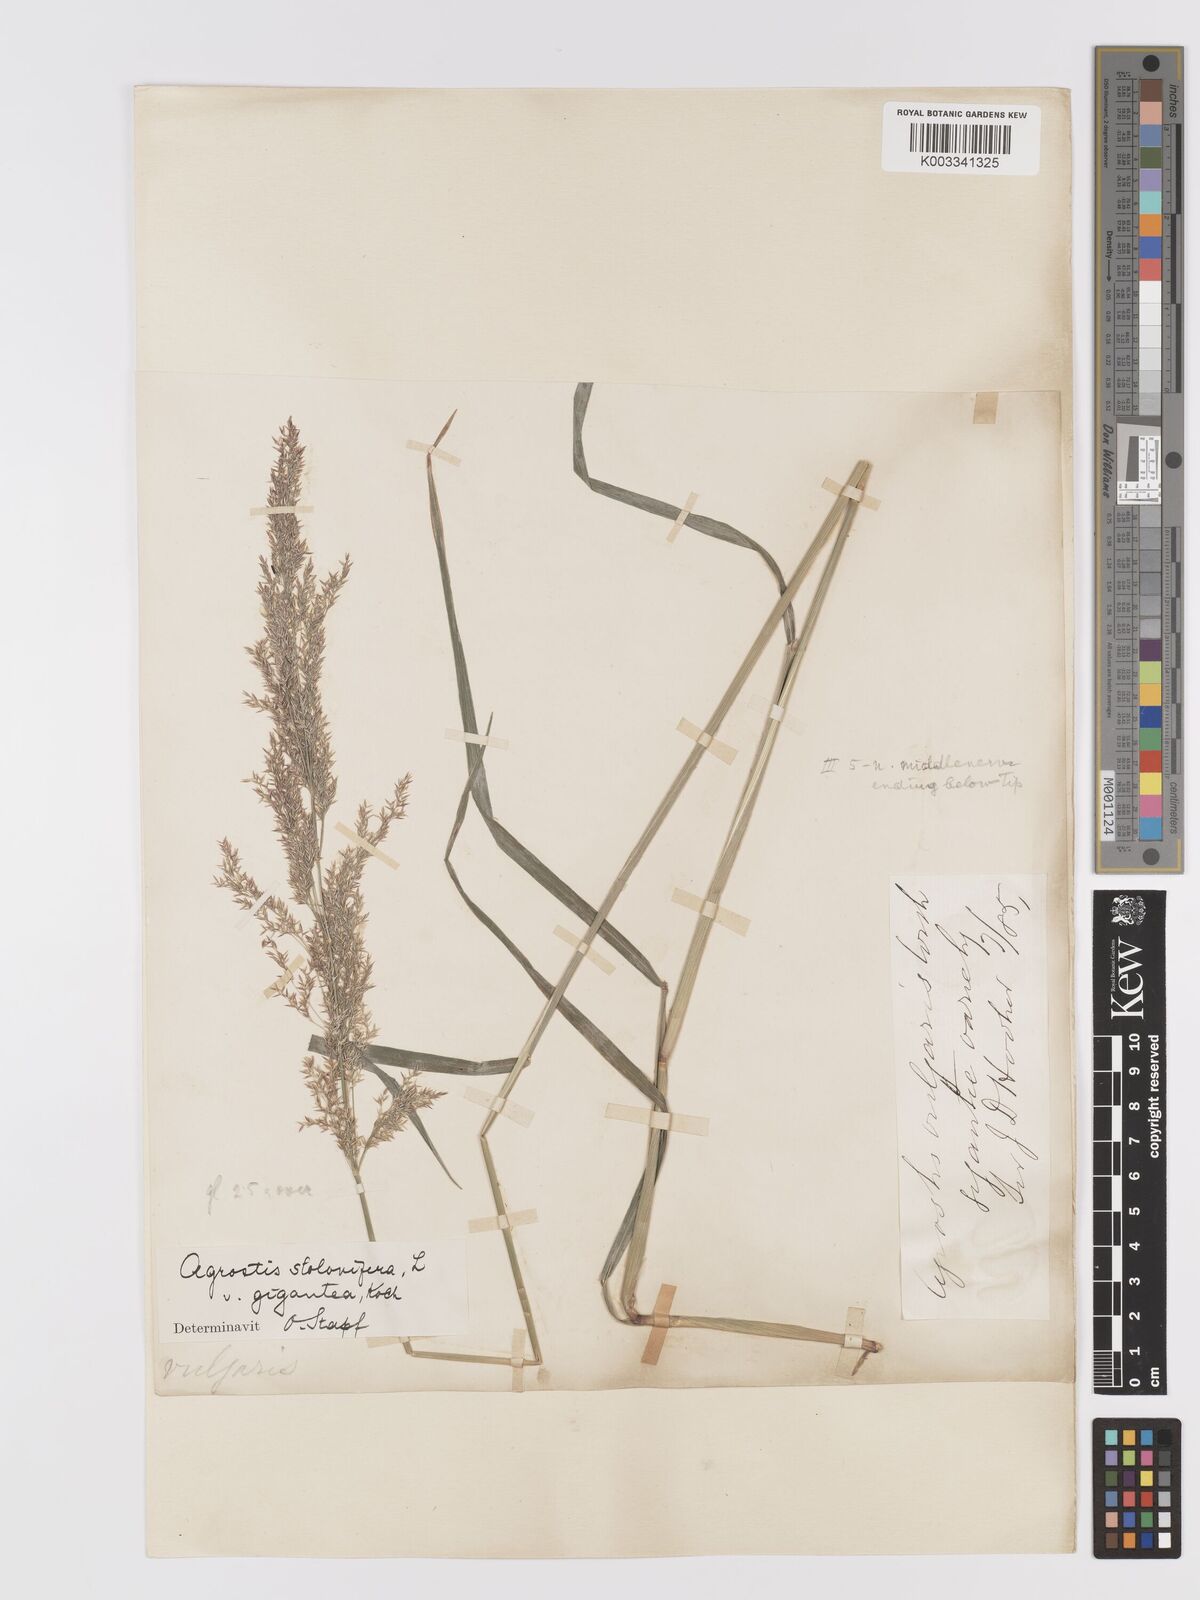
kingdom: Plantae
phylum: Tracheophyta
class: Liliopsida
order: Poales
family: Poaceae
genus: Agrostis
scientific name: Agrostis gigantea
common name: Black bent
